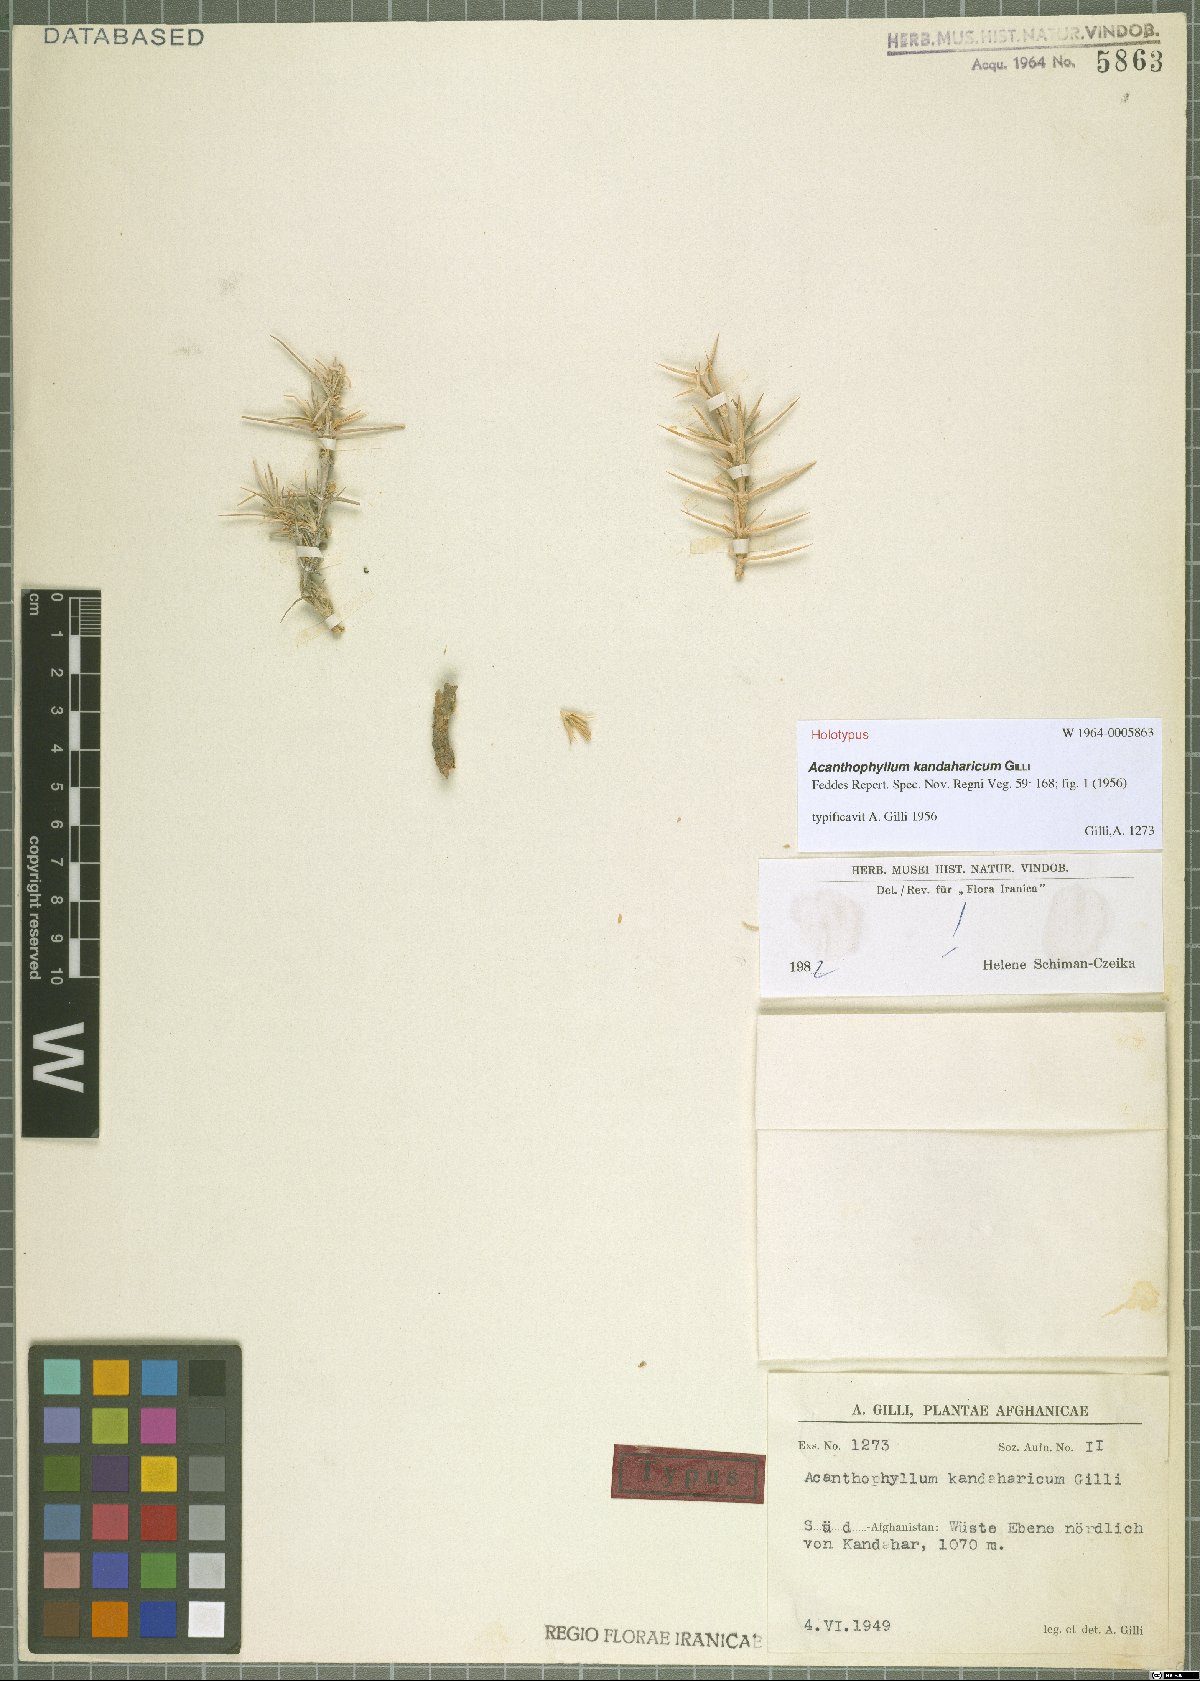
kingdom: Plantae
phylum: Tracheophyta
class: Magnoliopsida
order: Caryophyllales
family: Caryophyllaceae
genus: Acanthophyllum
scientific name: Acanthophyllum kandaharicum
